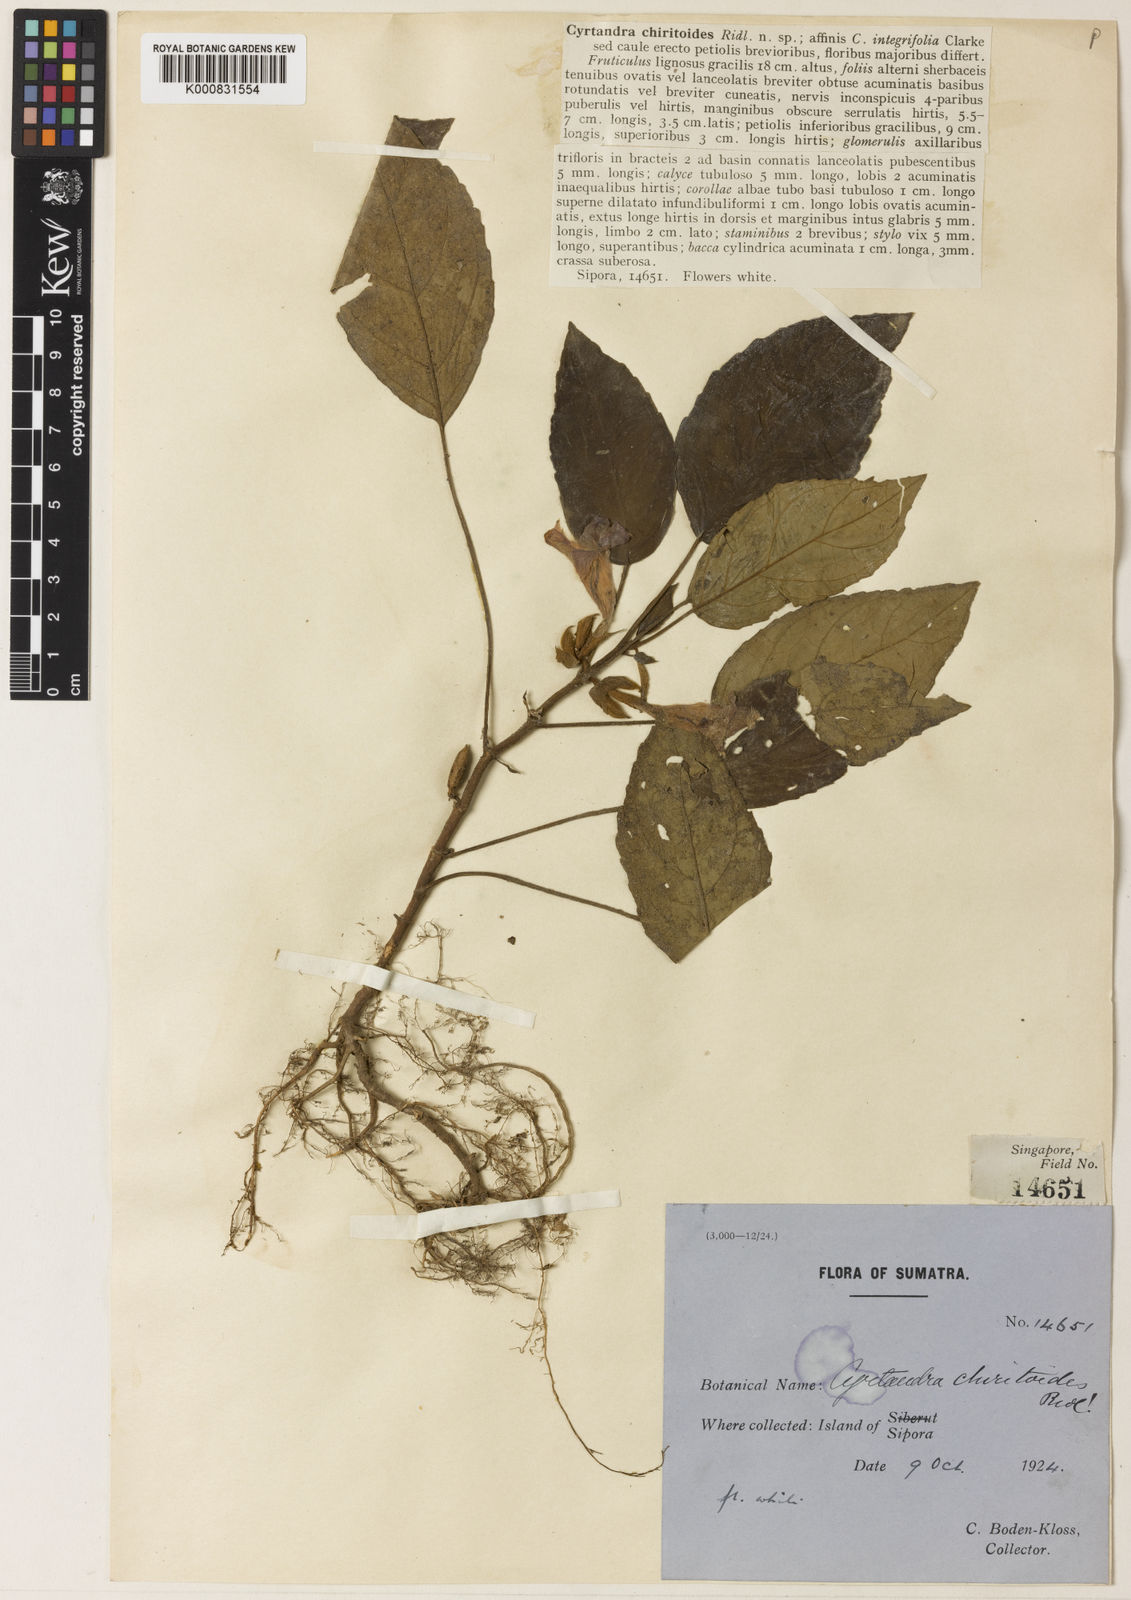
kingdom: Plantae
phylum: Tracheophyta
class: Magnoliopsida
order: Lamiales
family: Gesneriaceae
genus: Cyrtandra
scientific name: Cyrtandra siporensis
